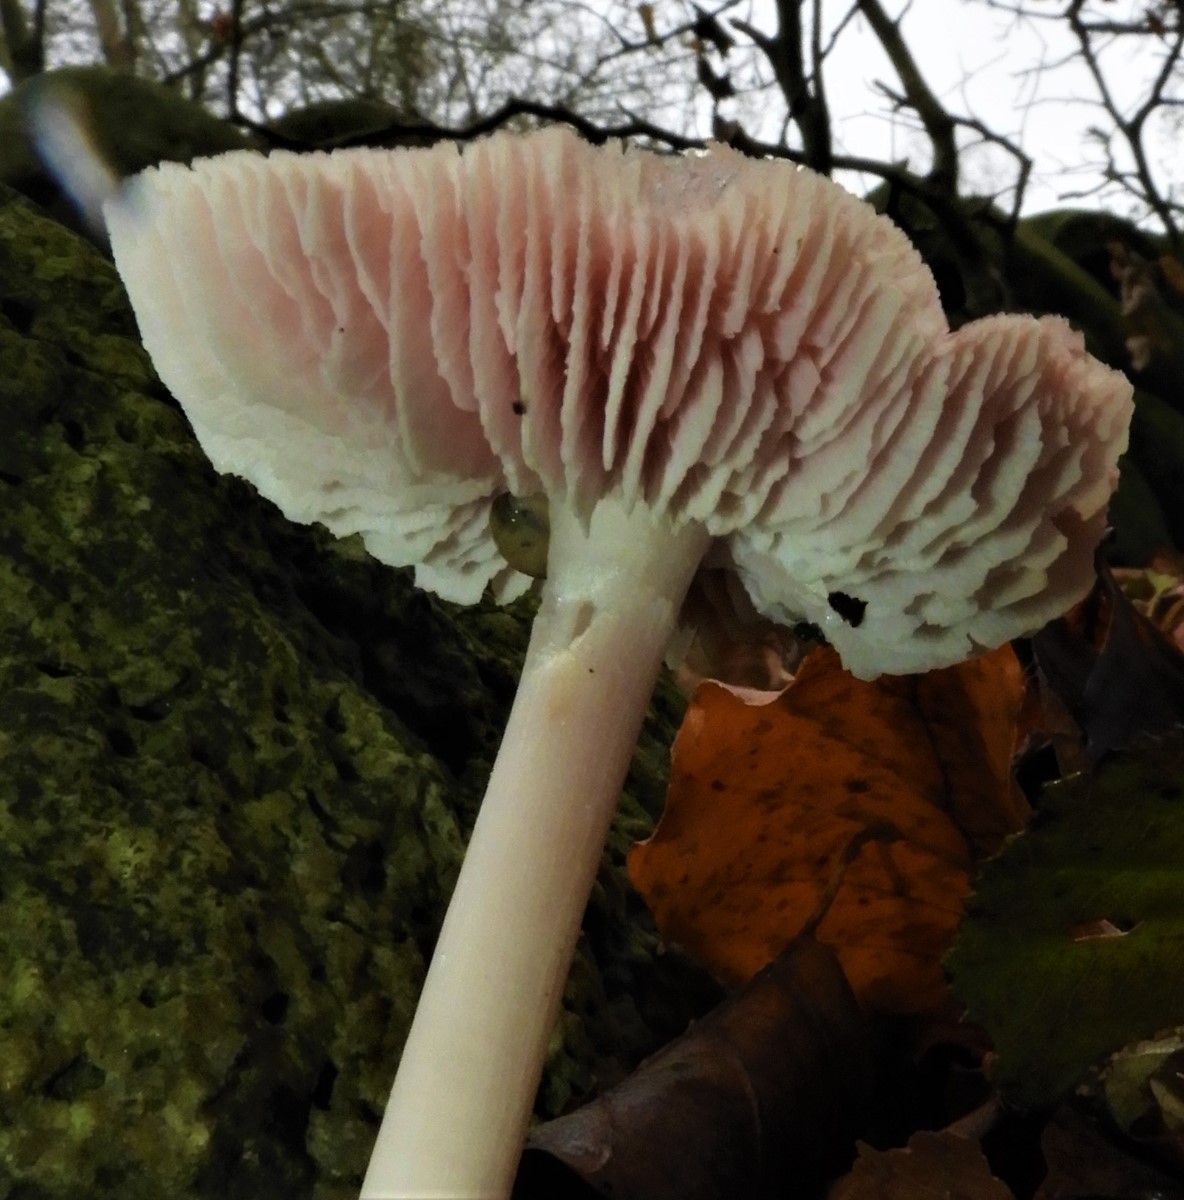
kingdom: Fungi
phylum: Basidiomycota
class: Agaricomycetes
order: Agaricales
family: Mycenaceae
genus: Mycena
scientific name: Mycena rosea
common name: rosa huesvamp
